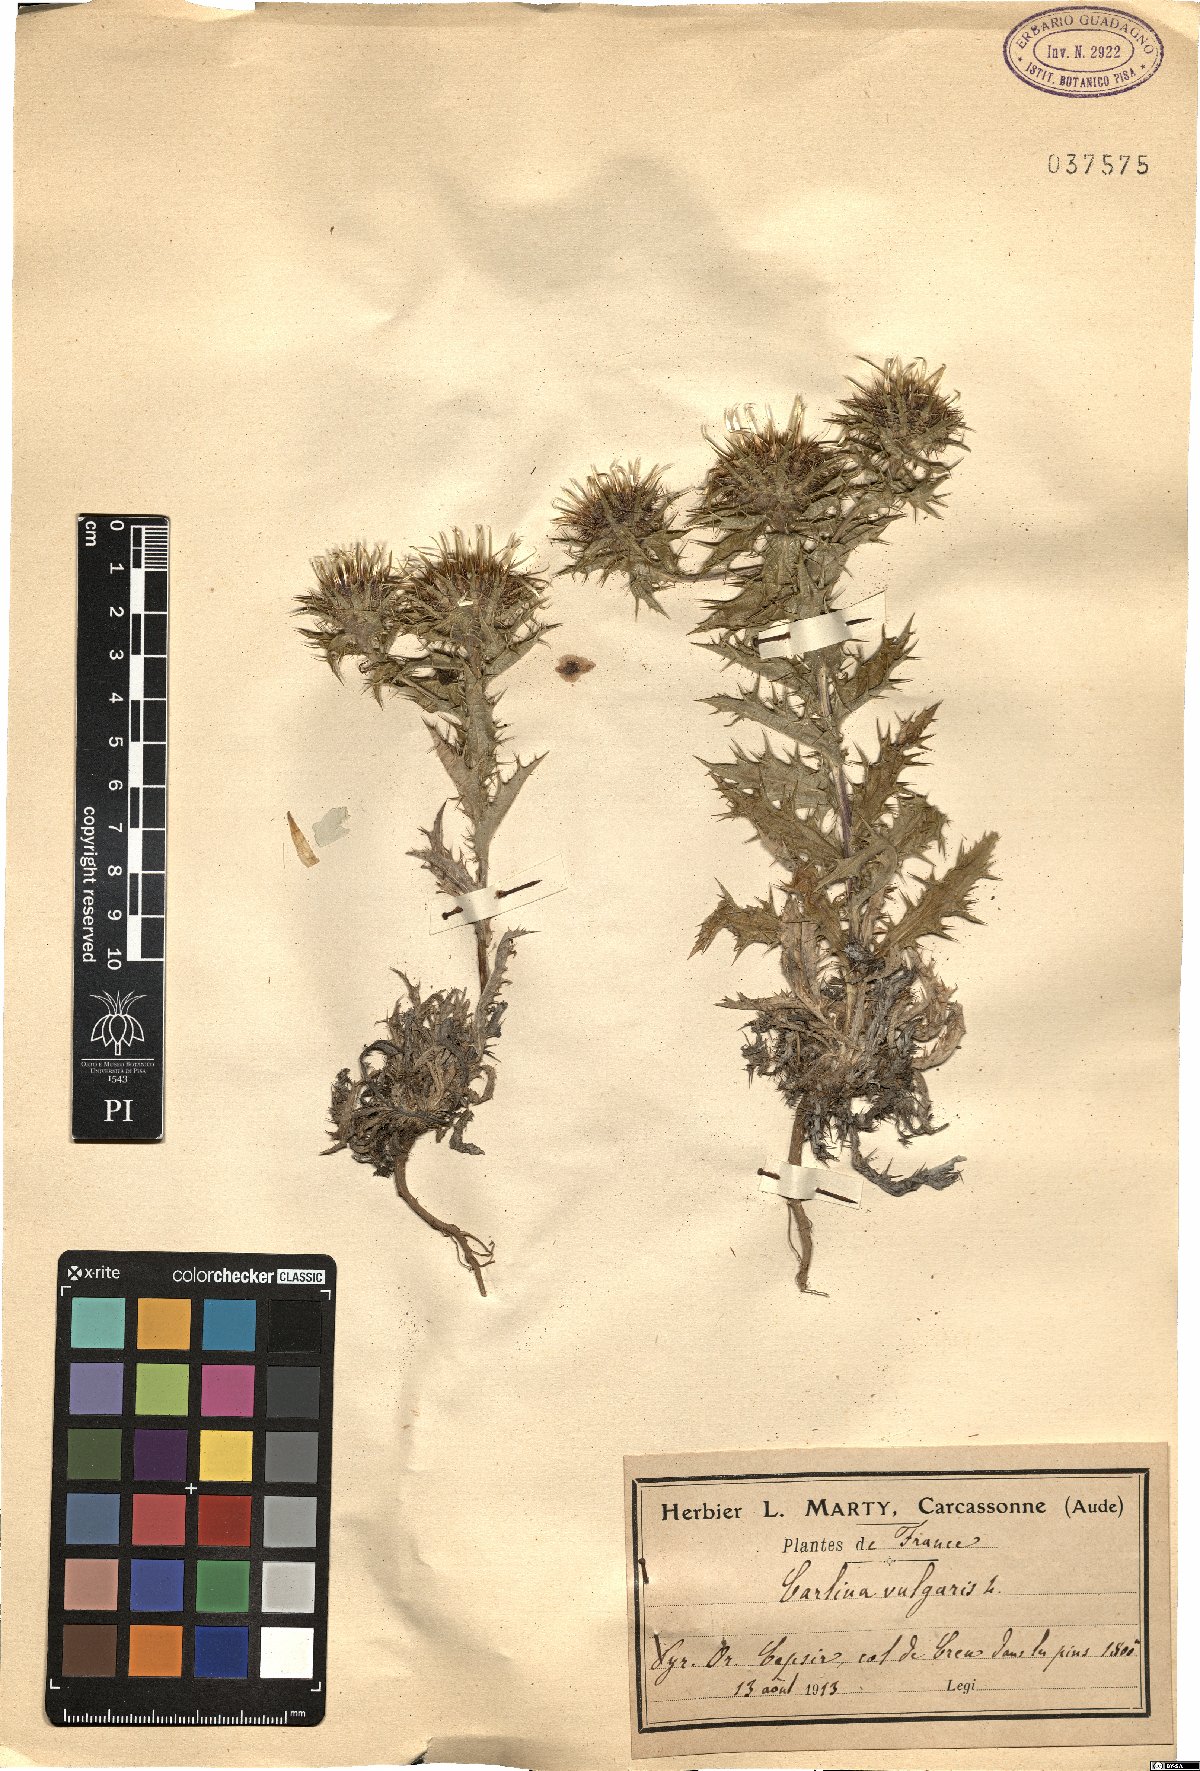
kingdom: Plantae
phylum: Tracheophyta
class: Magnoliopsida
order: Asterales
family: Asteraceae
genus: Carlina
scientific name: Carlina vulgaris
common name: Carline thistle
